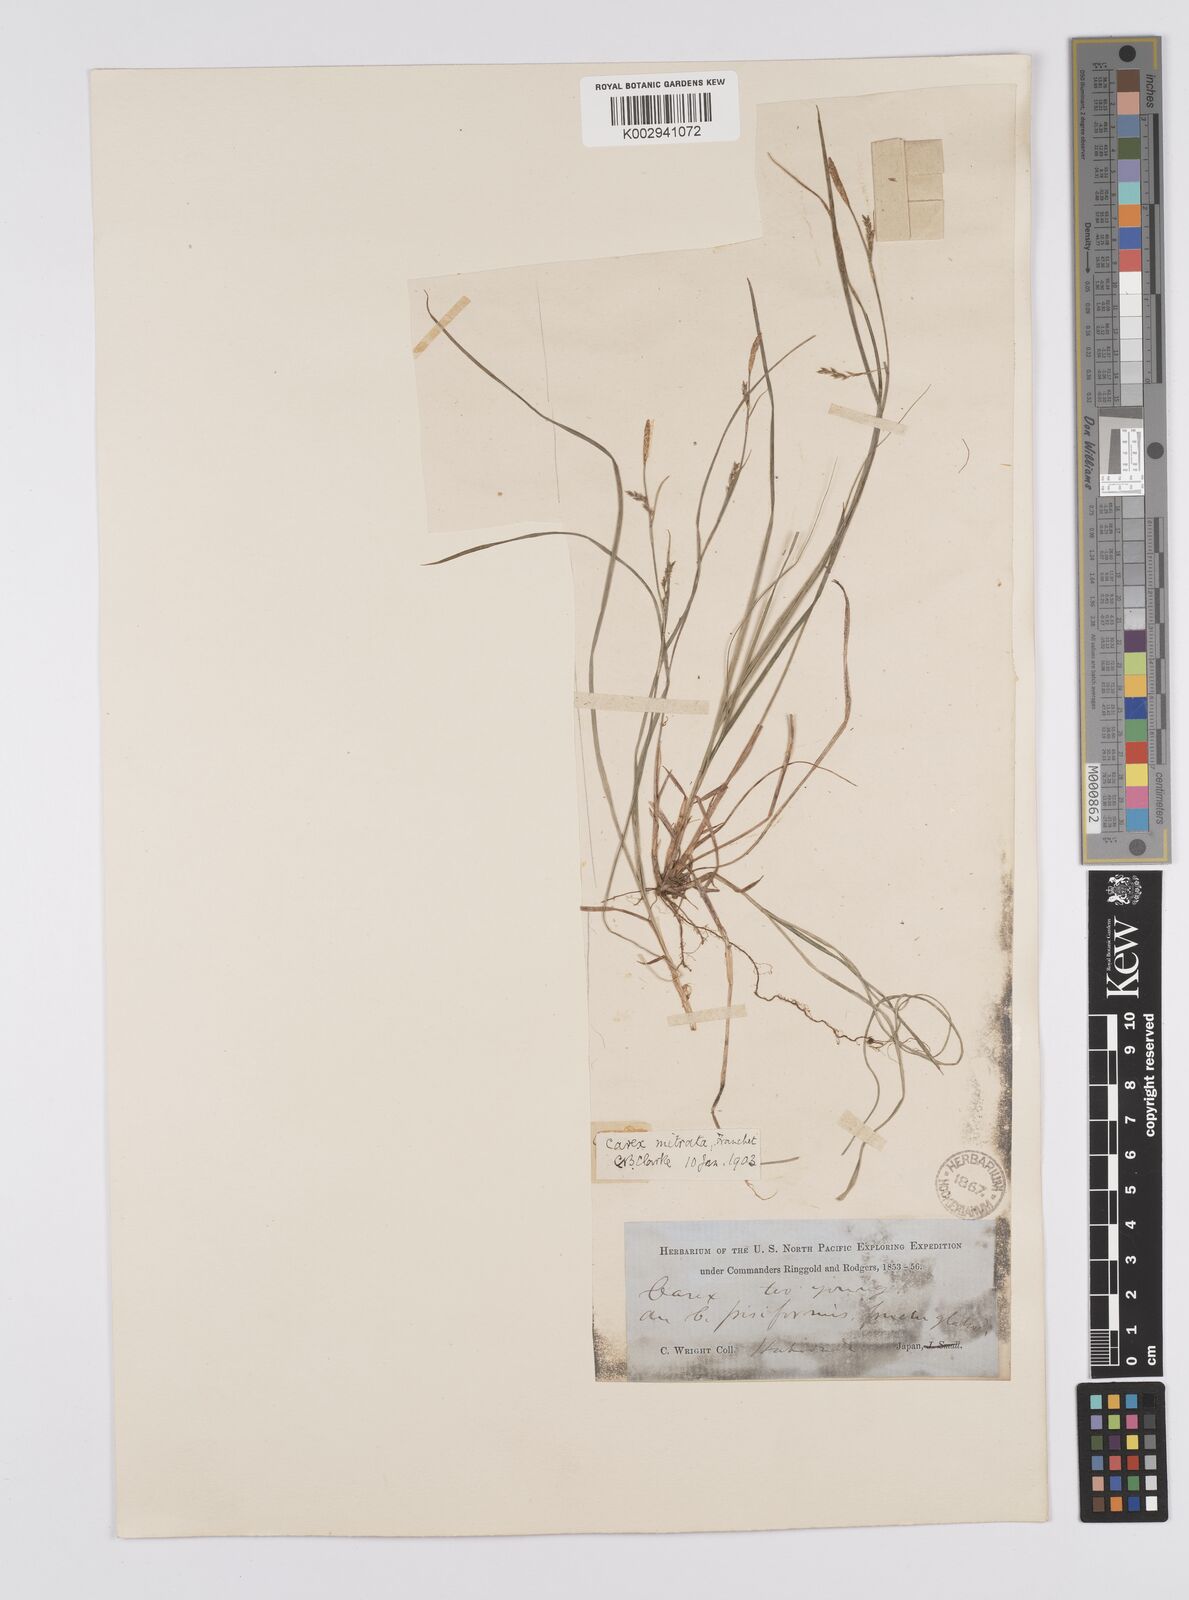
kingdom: Plantae
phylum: Tracheophyta
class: Liliopsida
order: Poales
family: Cyperaceae
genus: Carex
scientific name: Carex mitrata
